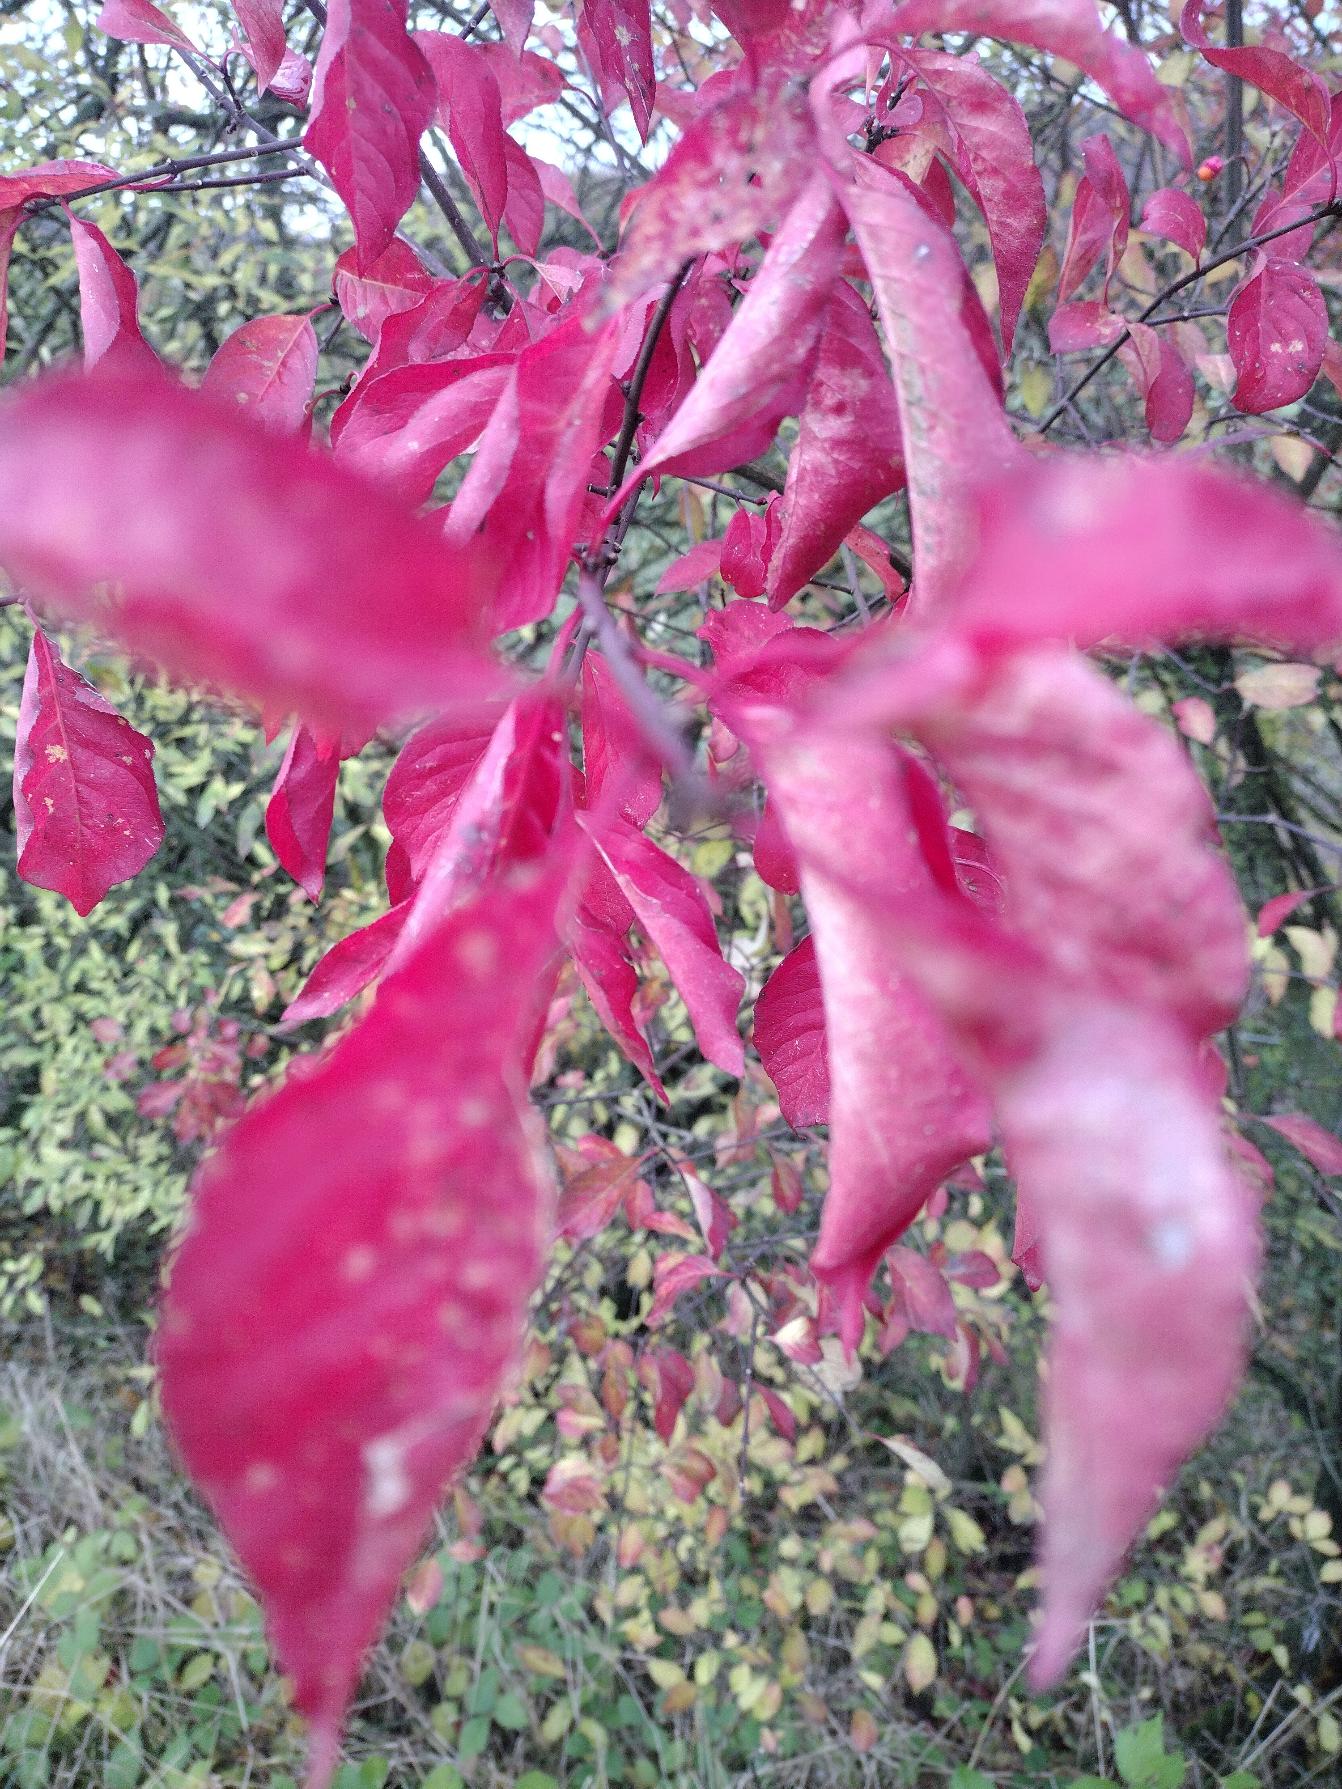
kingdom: Plantae
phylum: Tracheophyta
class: Magnoliopsida
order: Celastrales
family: Celastraceae
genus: Euonymus
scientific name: Euonymus europaeus
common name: Benved
